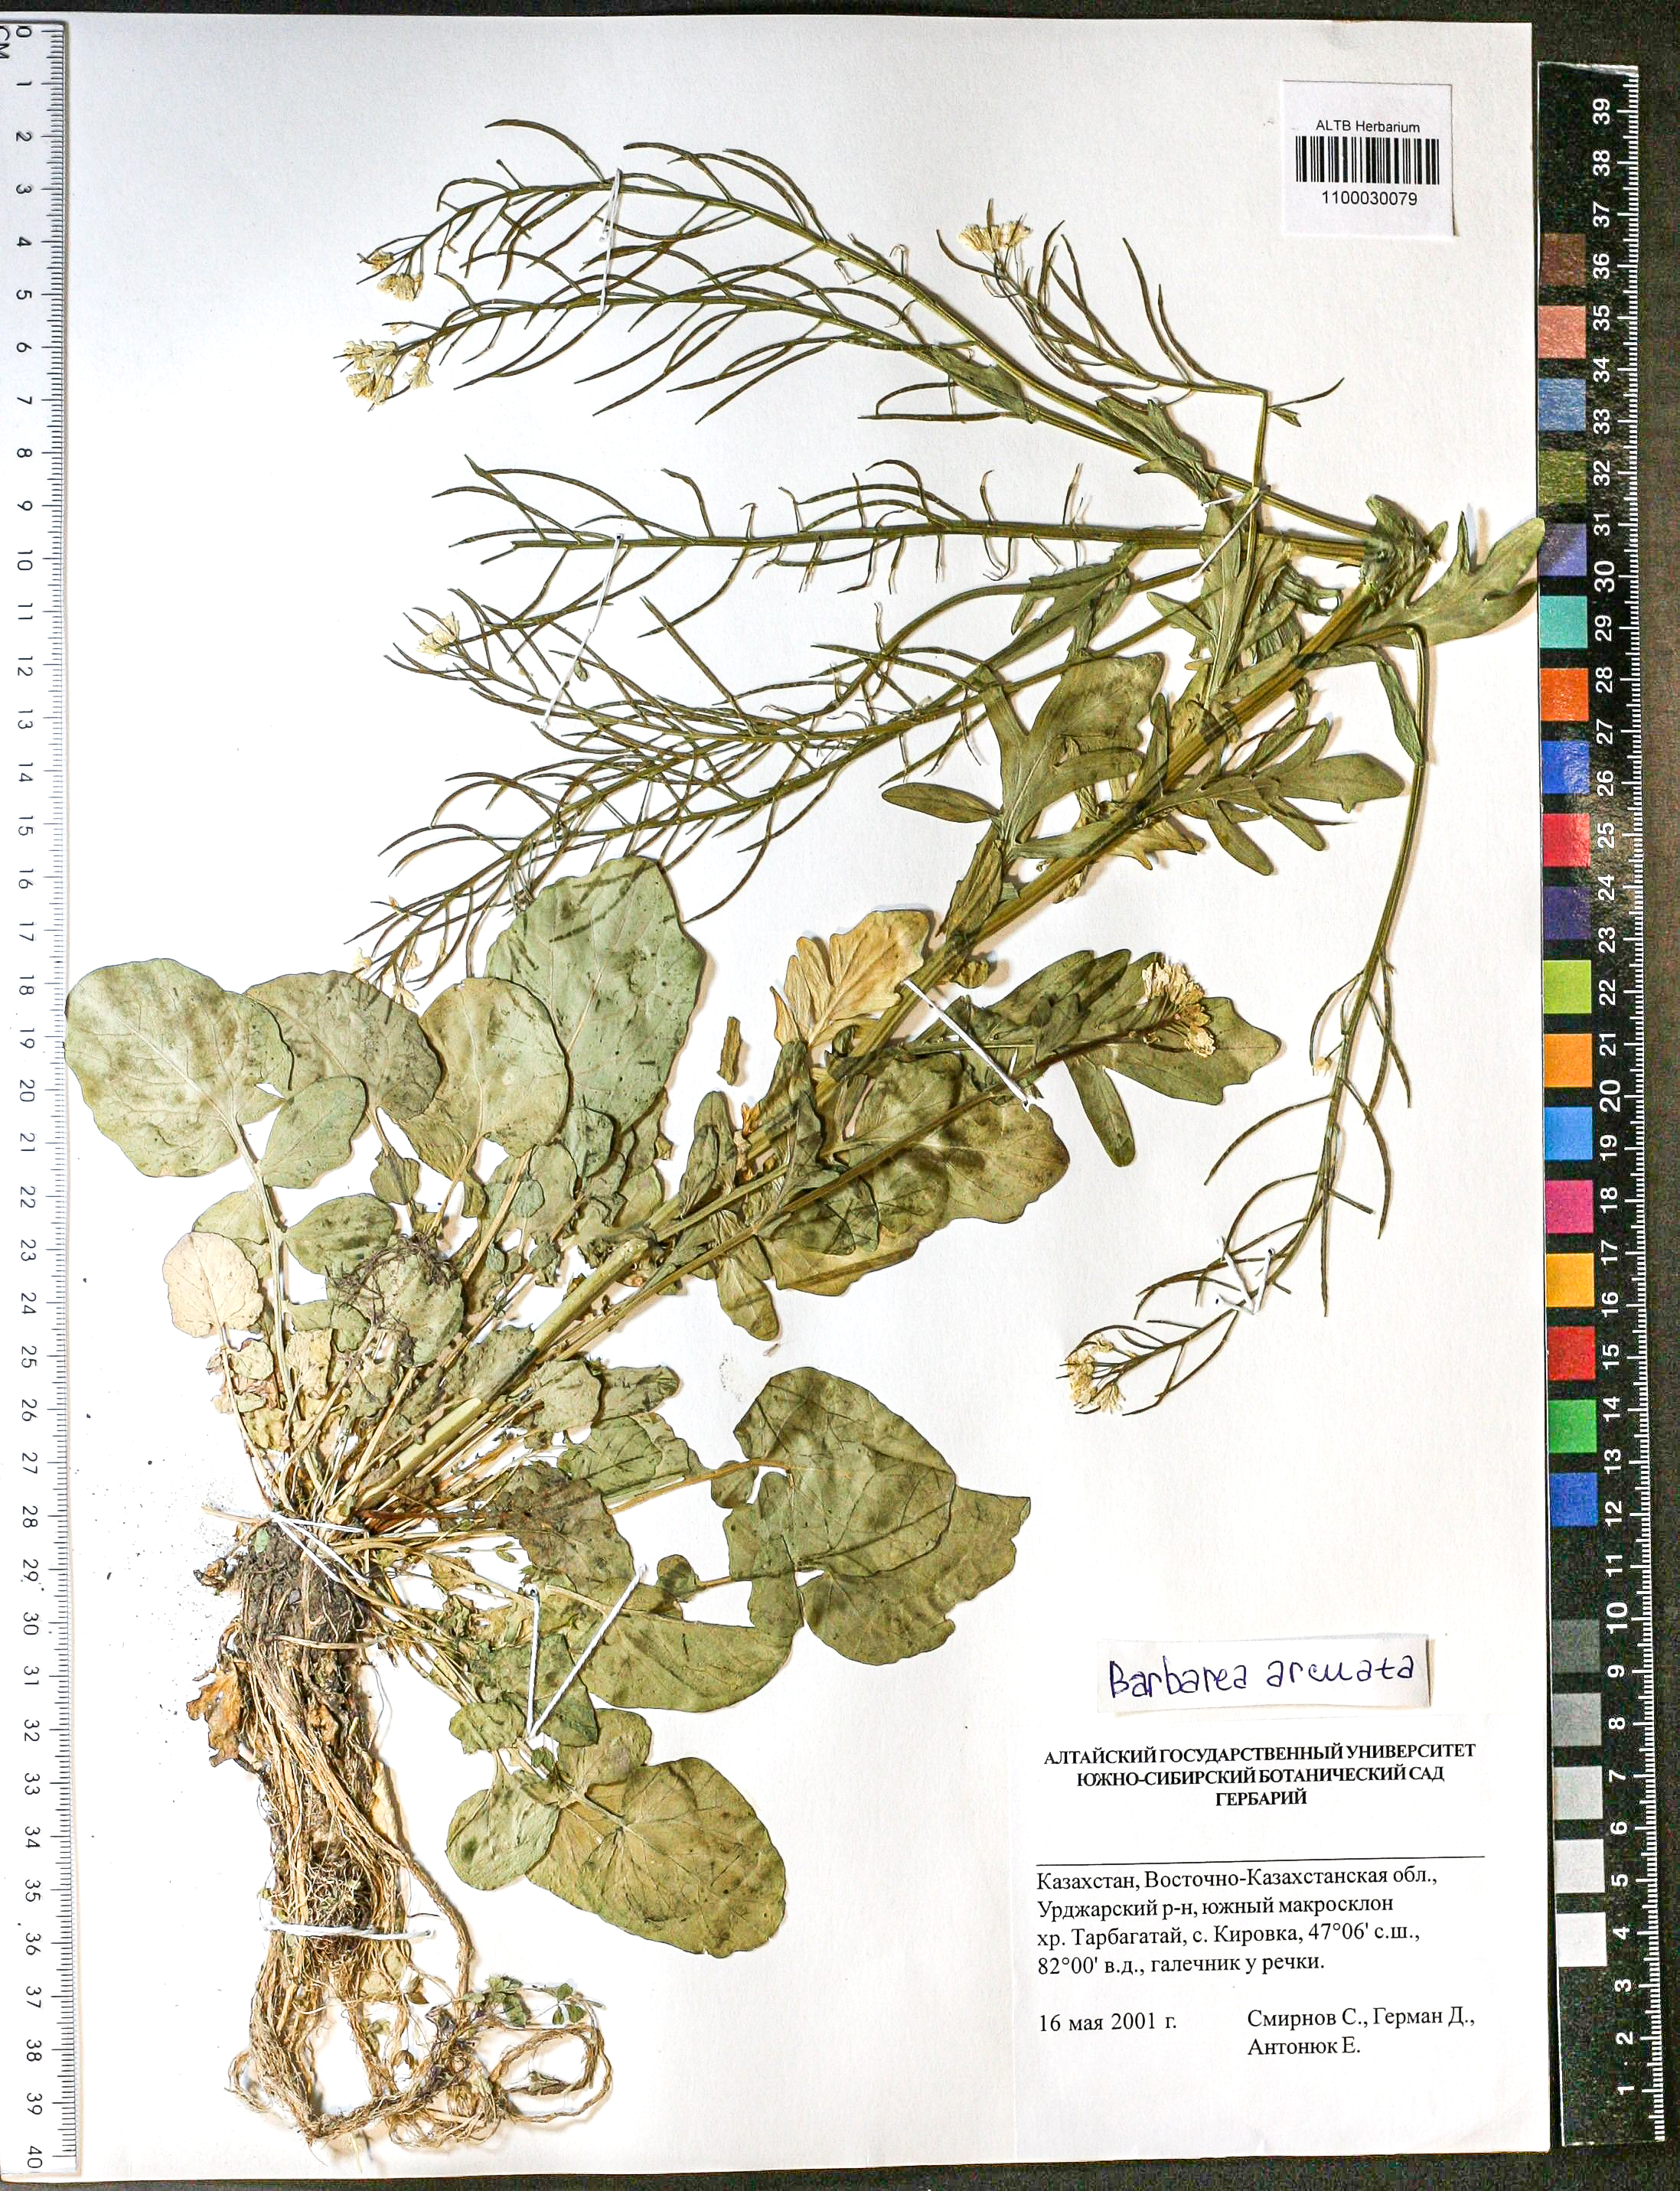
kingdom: Plantae
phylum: Tracheophyta
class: Magnoliopsida
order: Brassicales
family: Brassicaceae
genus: Barbarea
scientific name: Barbarea vulgaris
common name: Cressy-greens
